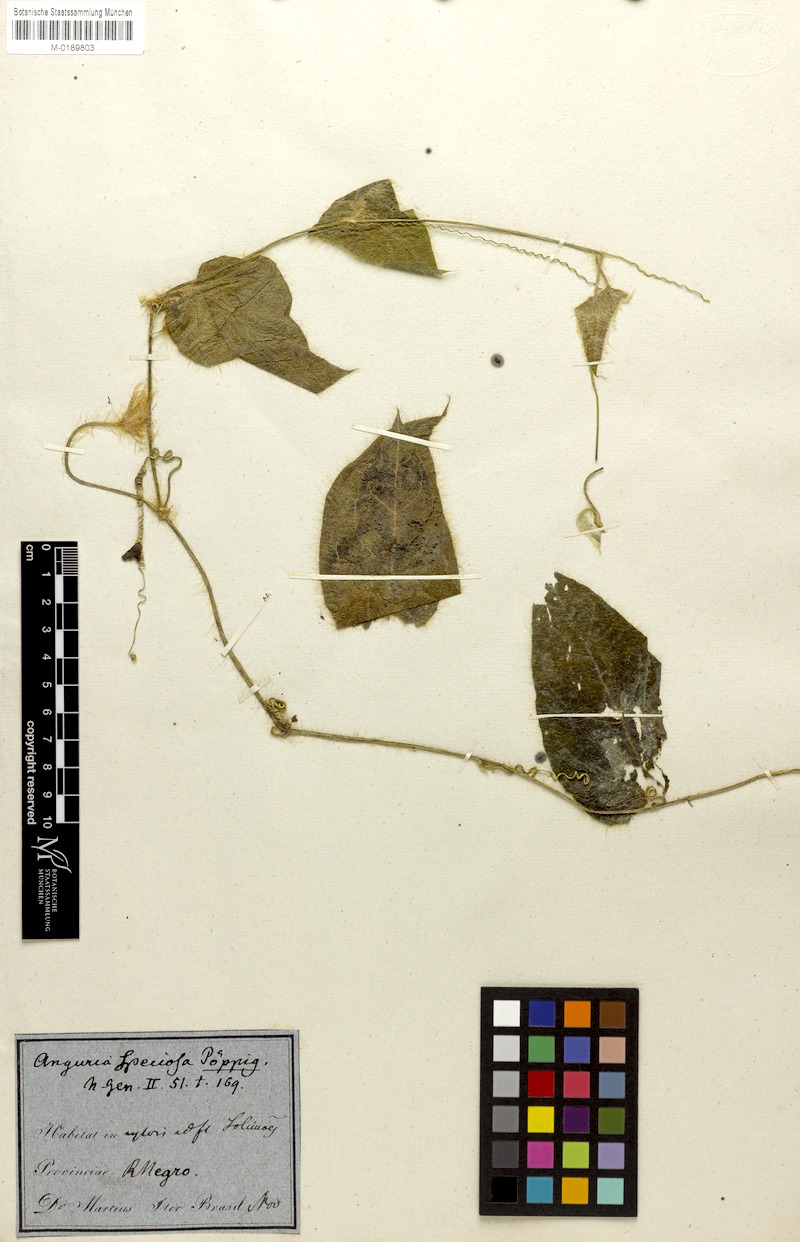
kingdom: Plantae
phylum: Tracheophyta
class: Magnoliopsida
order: Cucurbitales
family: Cucurbitaceae
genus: Gurania
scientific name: Gurania eriantha
